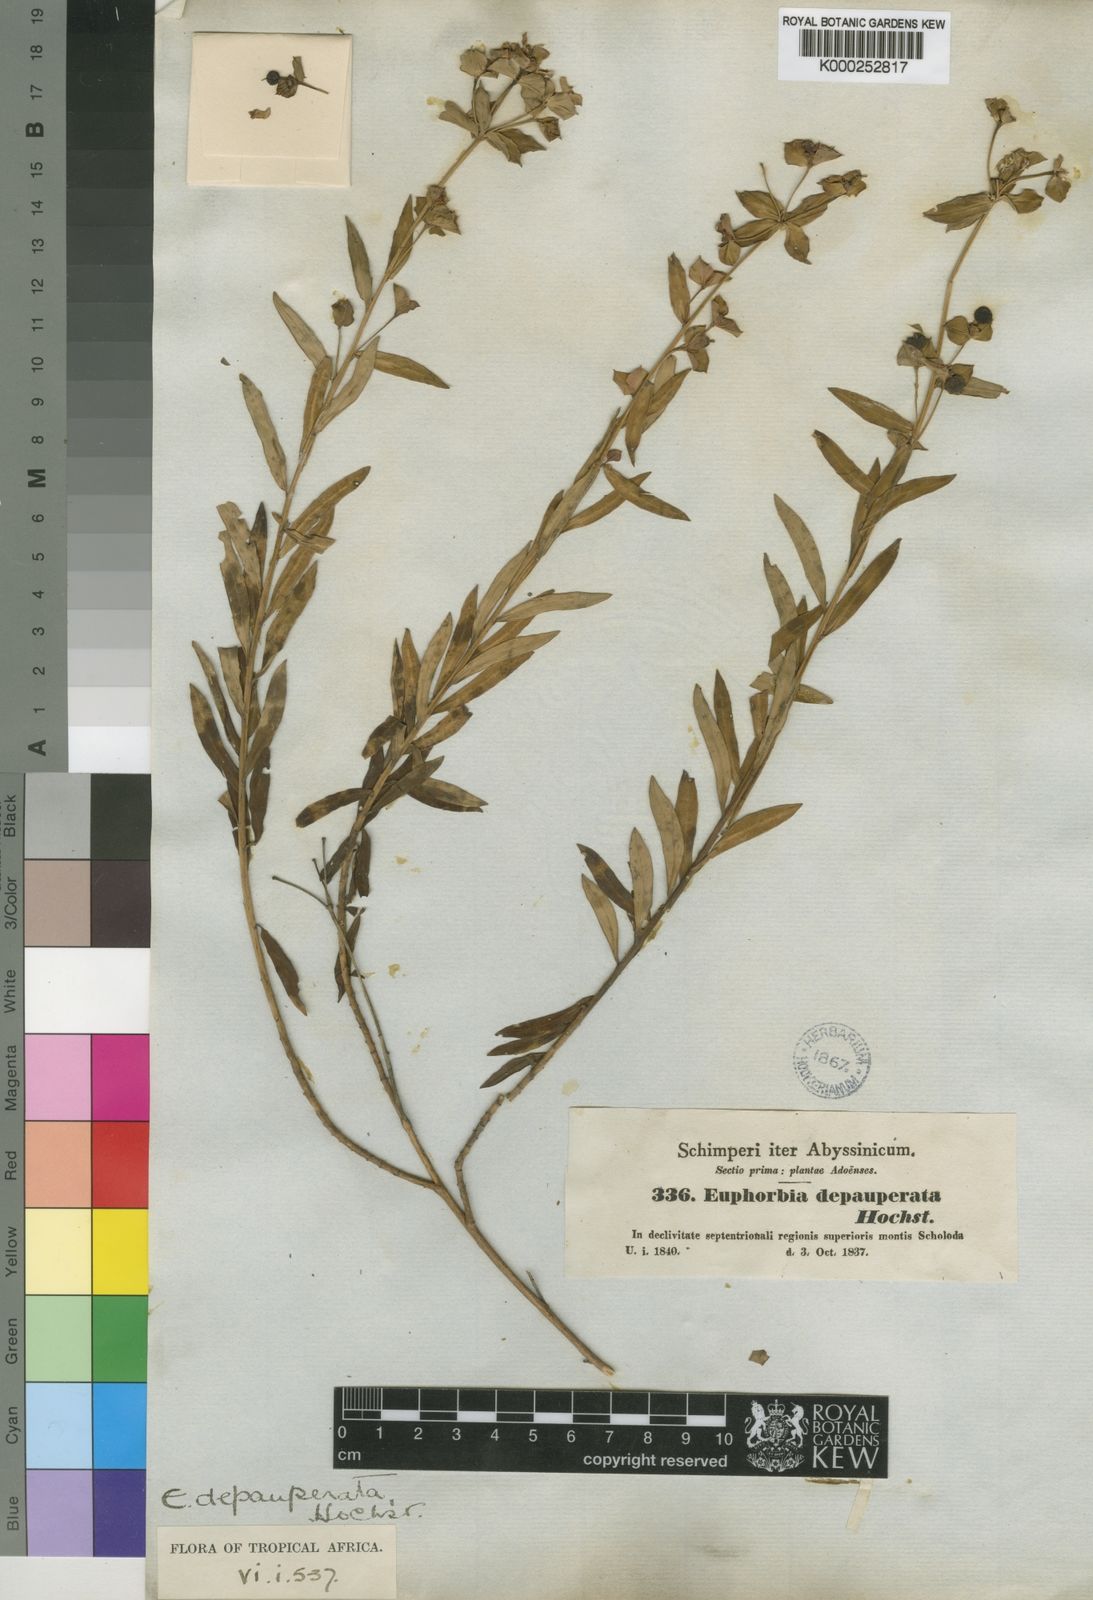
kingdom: Plantae
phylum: Tracheophyta
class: Magnoliopsida
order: Malpighiales
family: Euphorbiaceae
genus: Euphorbia
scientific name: Euphorbia
